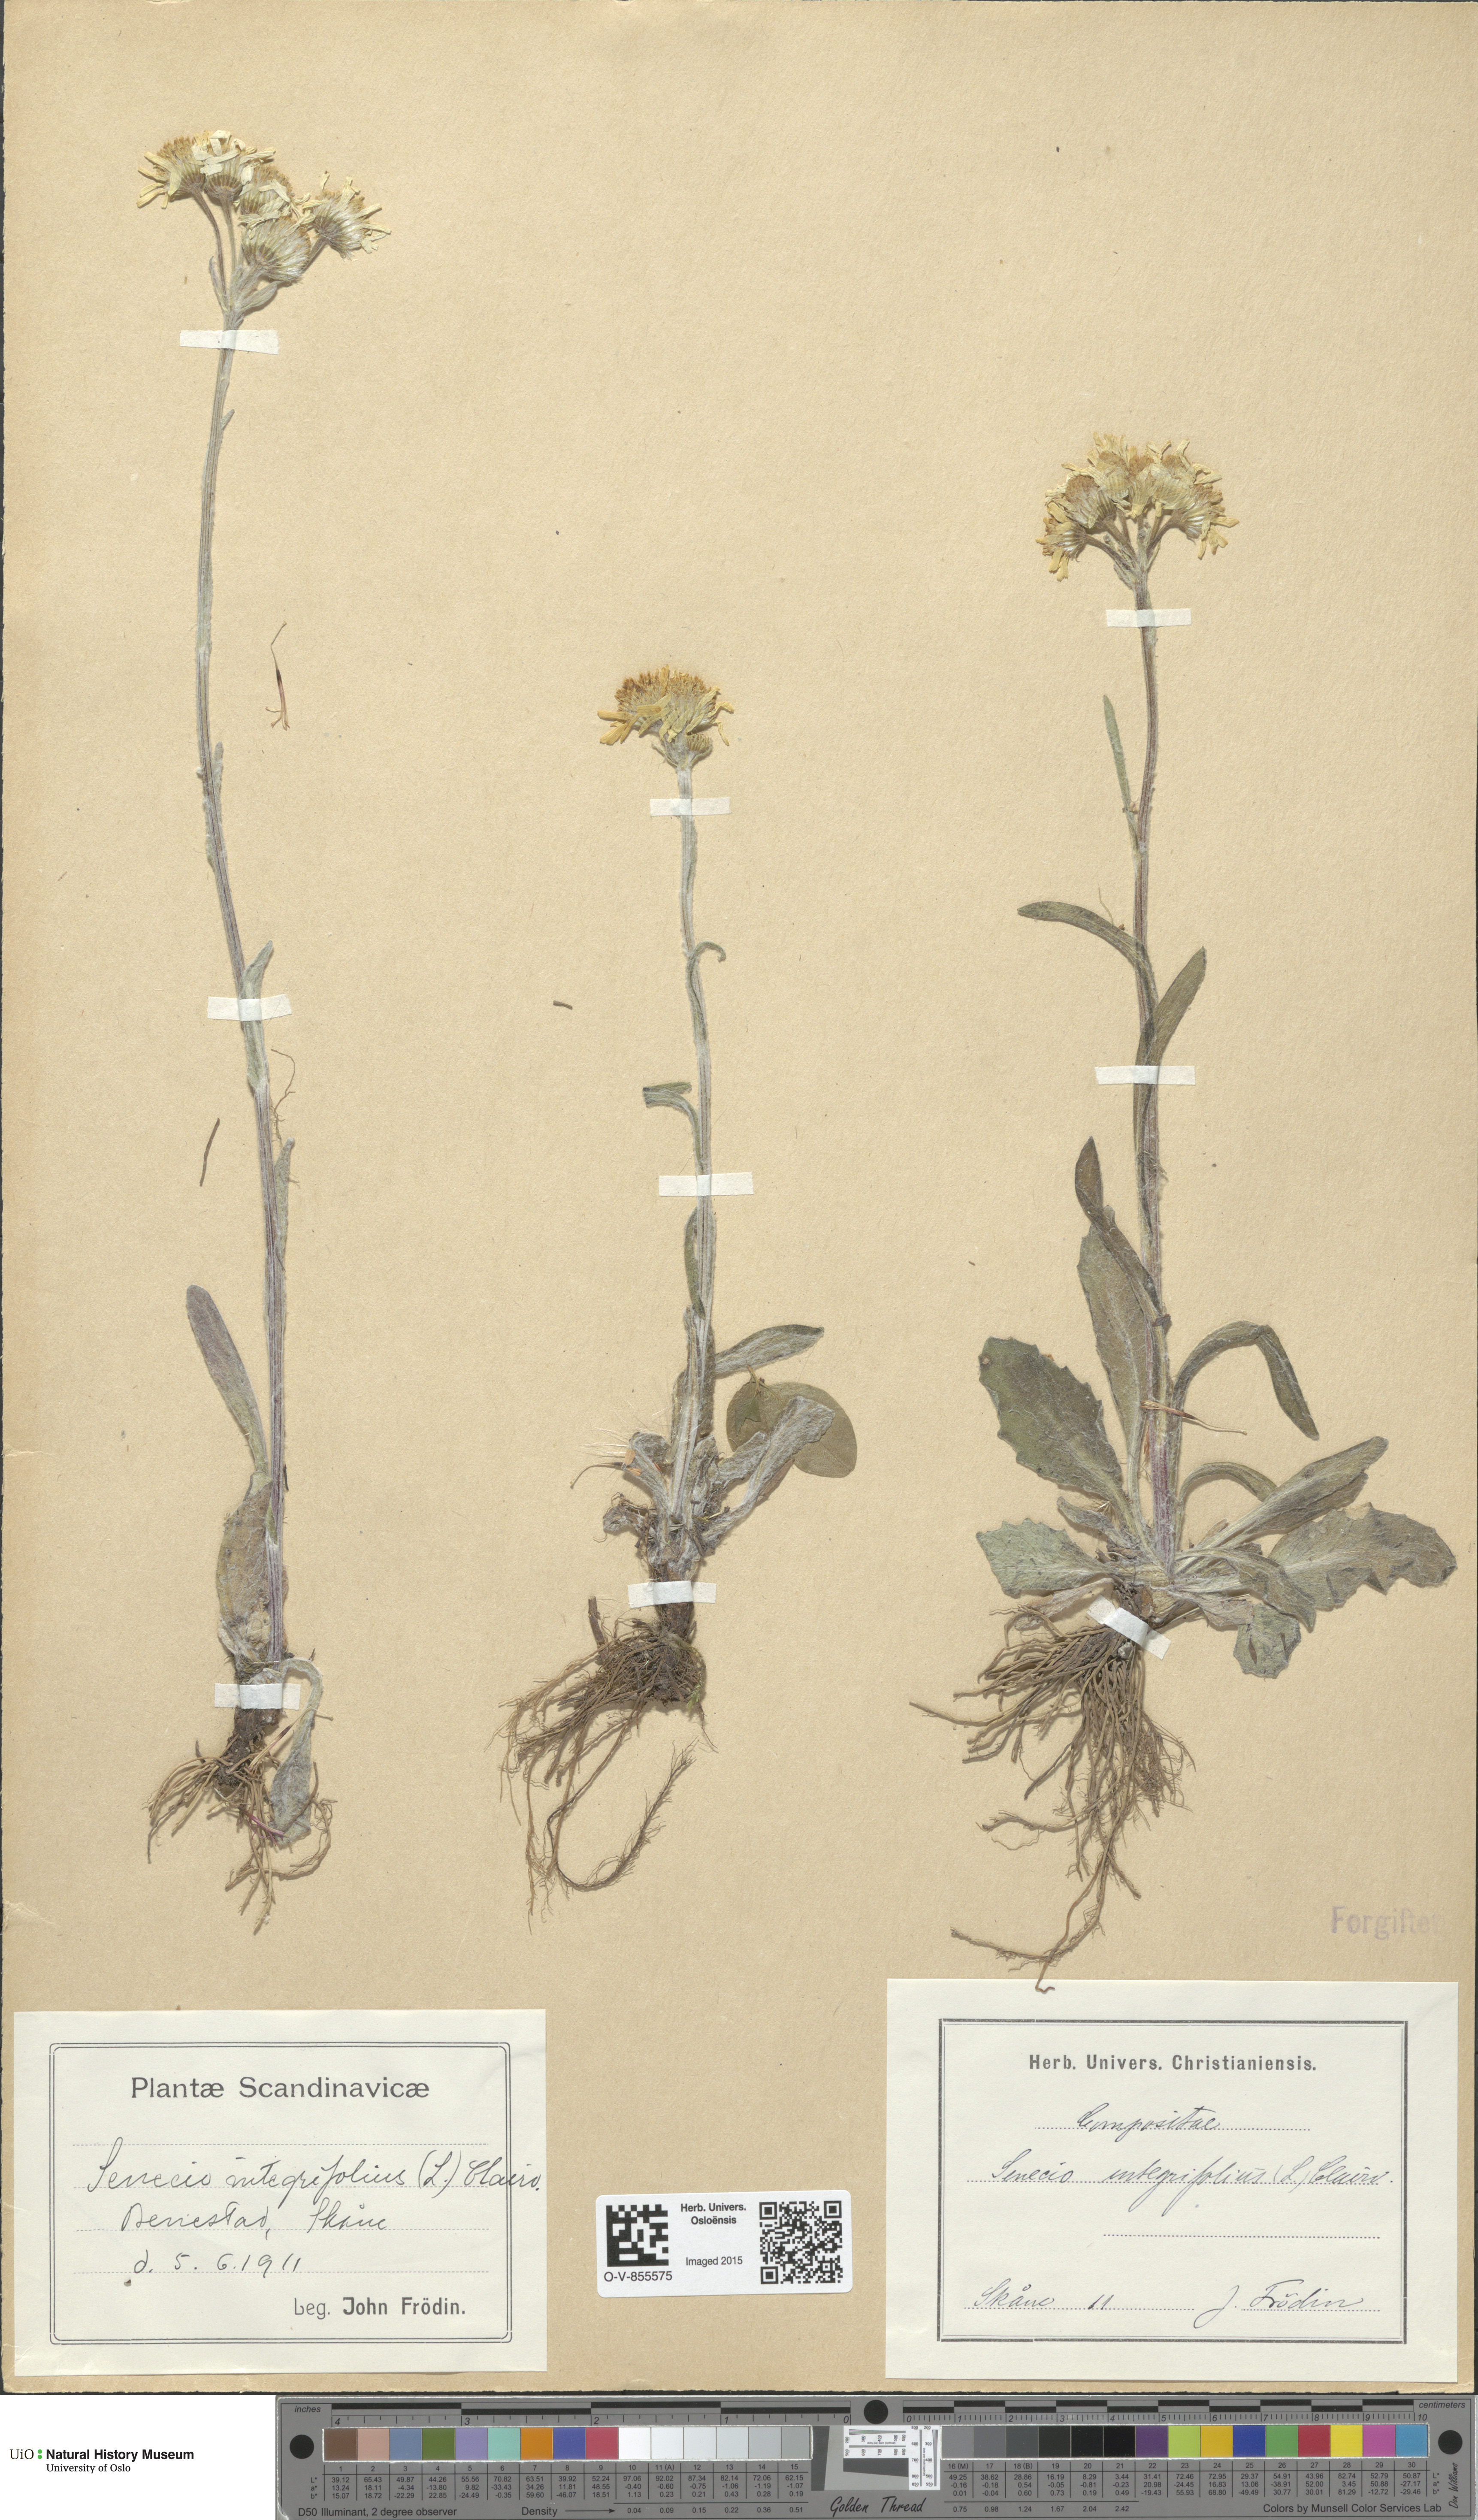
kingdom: Plantae
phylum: Tracheophyta
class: Magnoliopsida
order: Asterales
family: Asteraceae
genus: Tephroseris
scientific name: Tephroseris integrifolia
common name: Field fleawort
